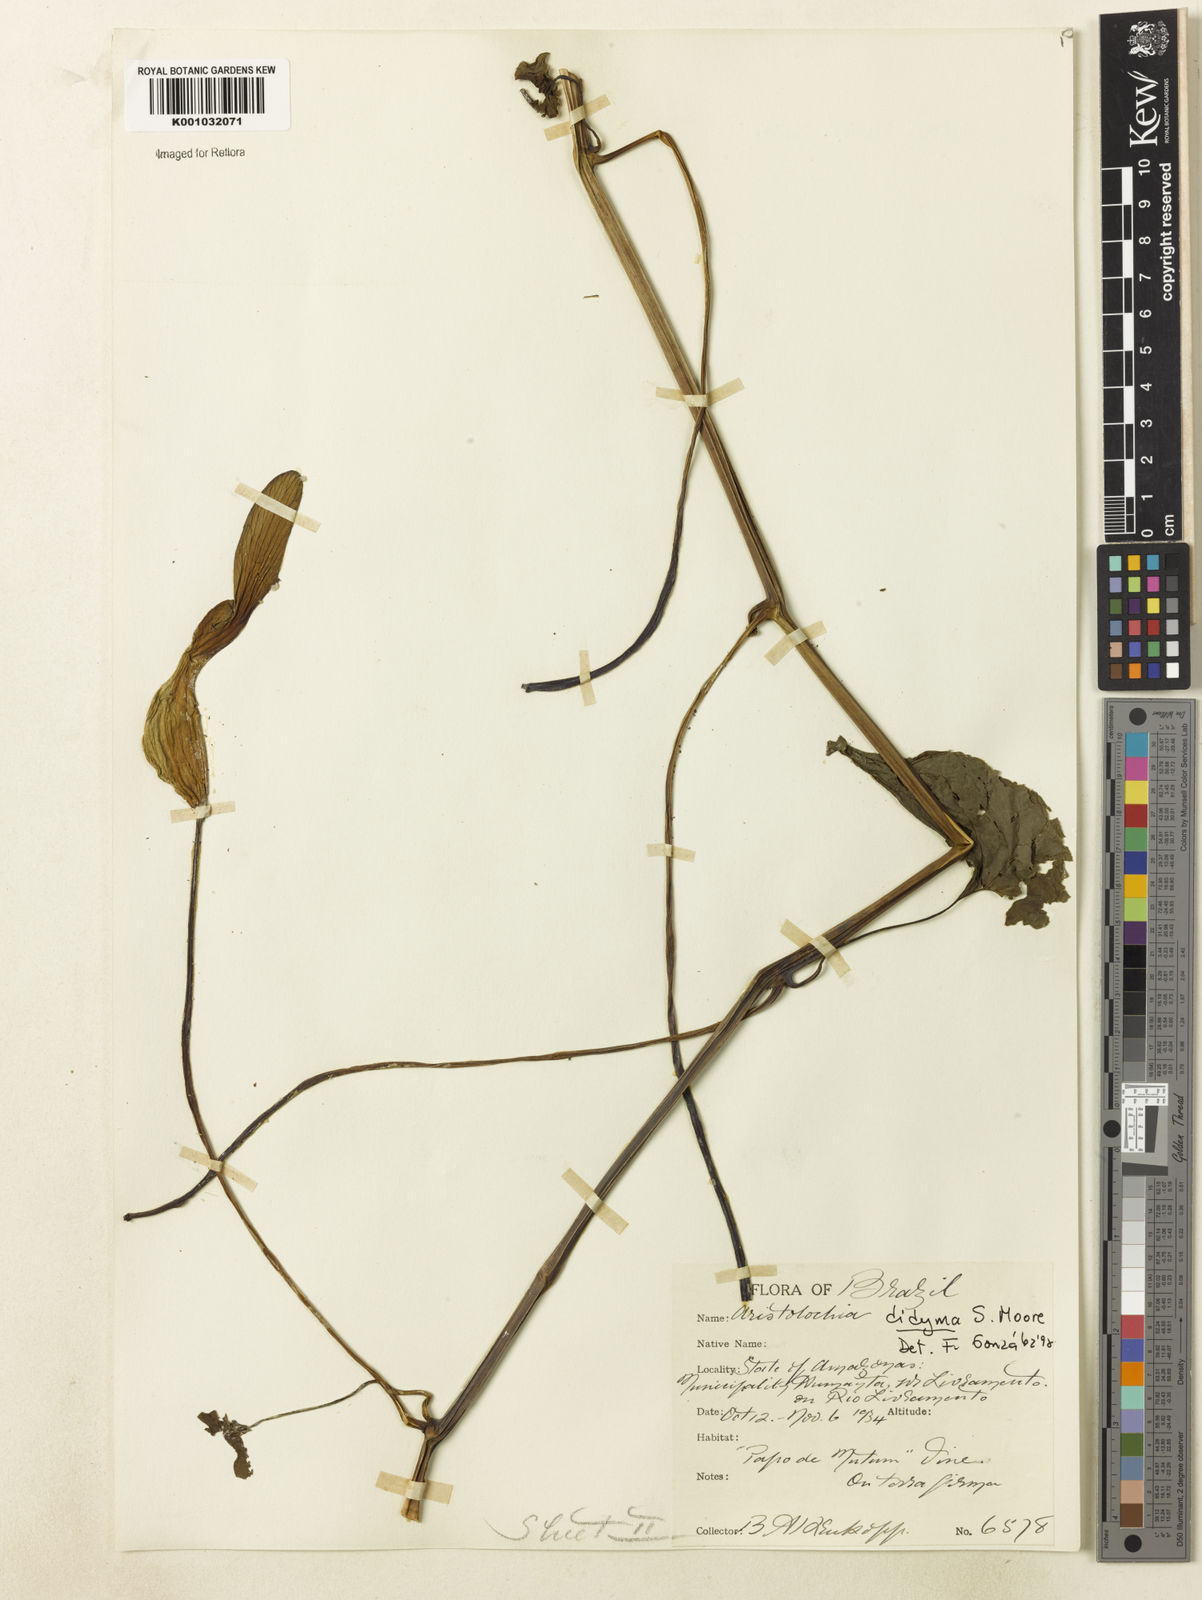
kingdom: Plantae
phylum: Tracheophyta
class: Magnoliopsida
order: Piperales
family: Aristolochiaceae
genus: Aristolochia
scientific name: Aristolochia
